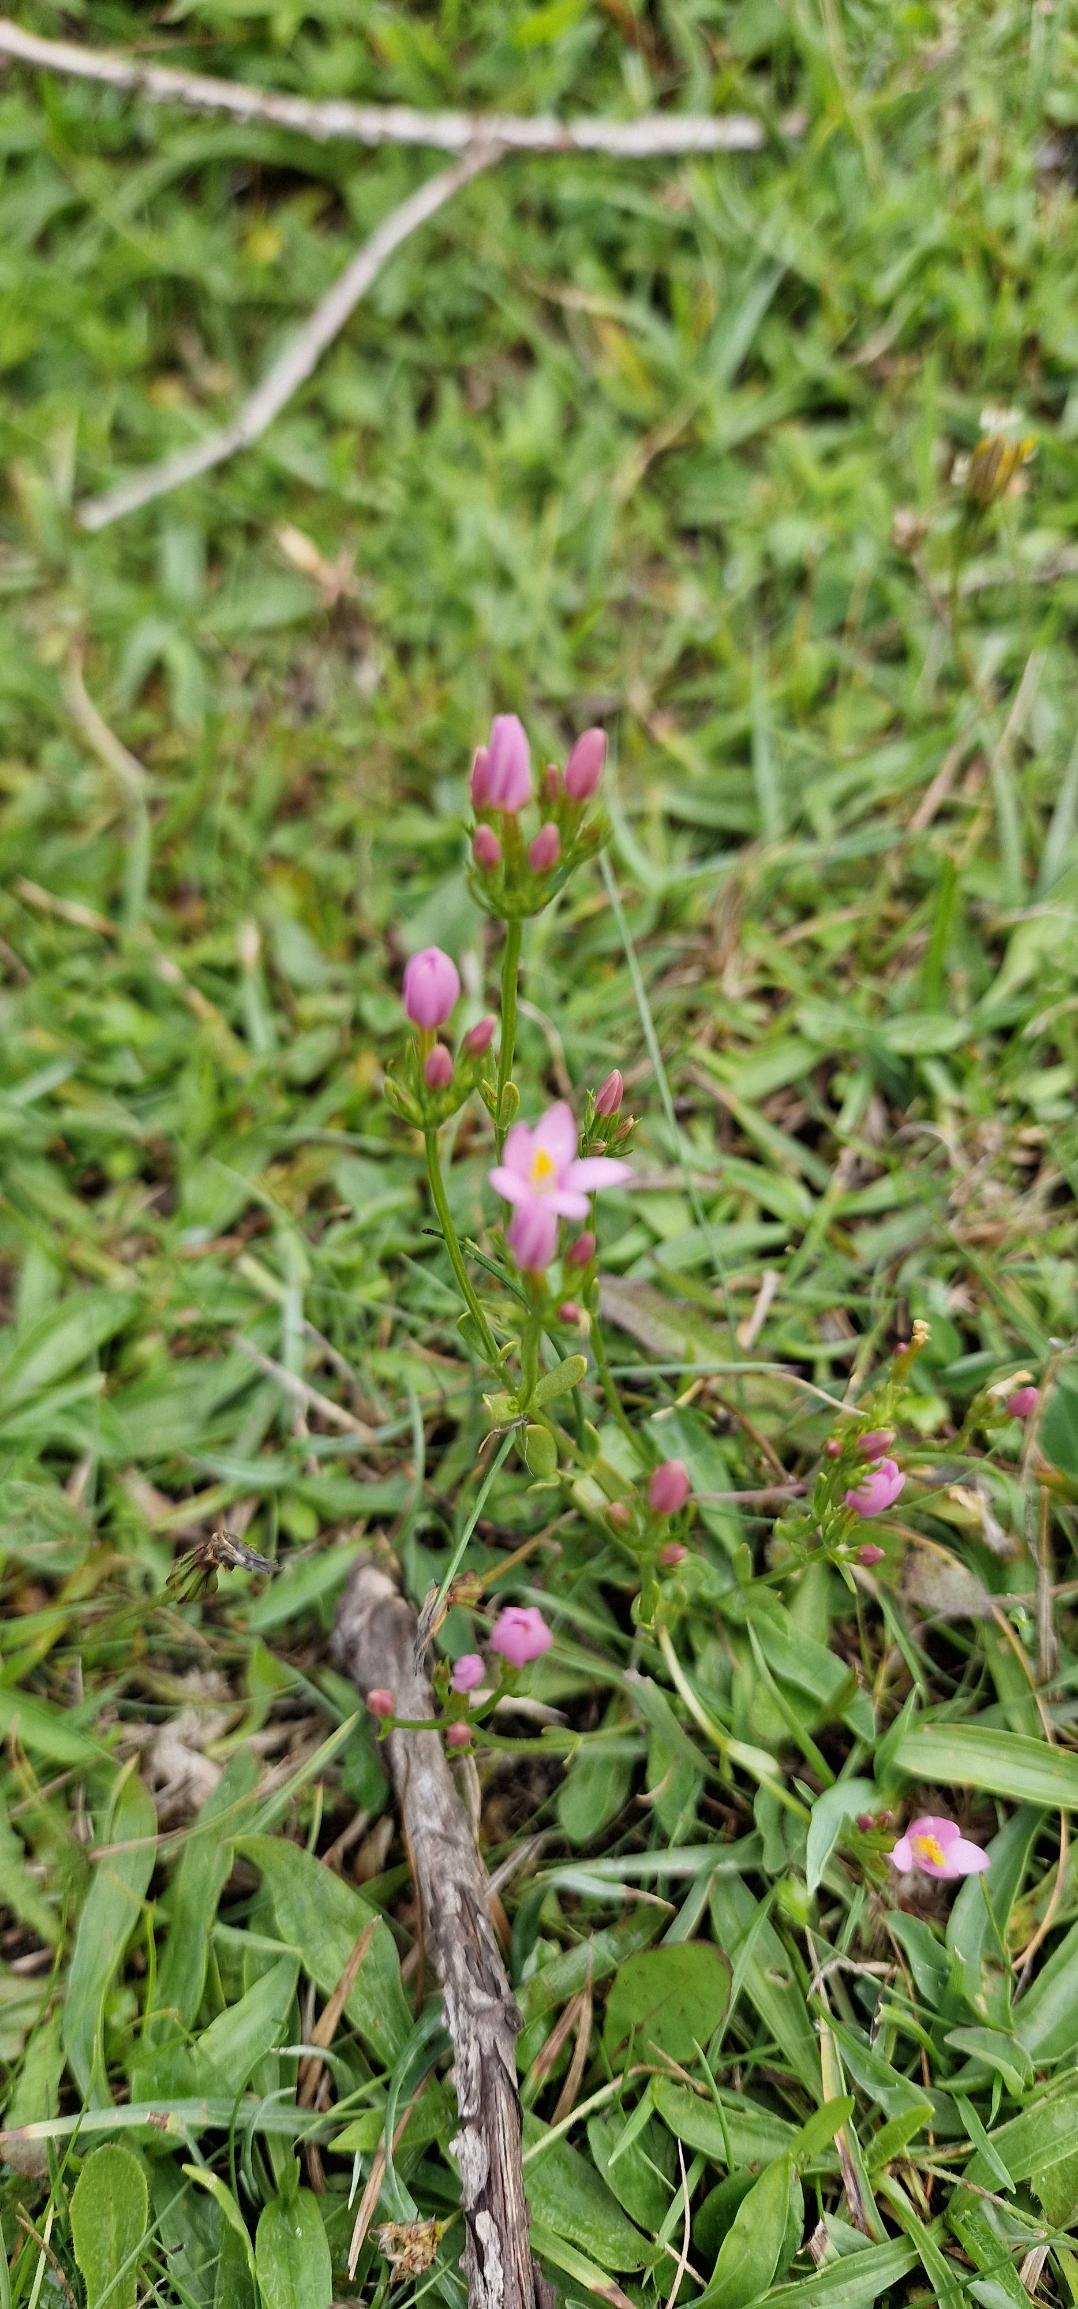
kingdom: Plantae
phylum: Tracheophyta
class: Magnoliopsida
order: Gentianales
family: Gentianaceae
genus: Centaurium
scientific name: Centaurium erythraea
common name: Mark-tusindgylden
